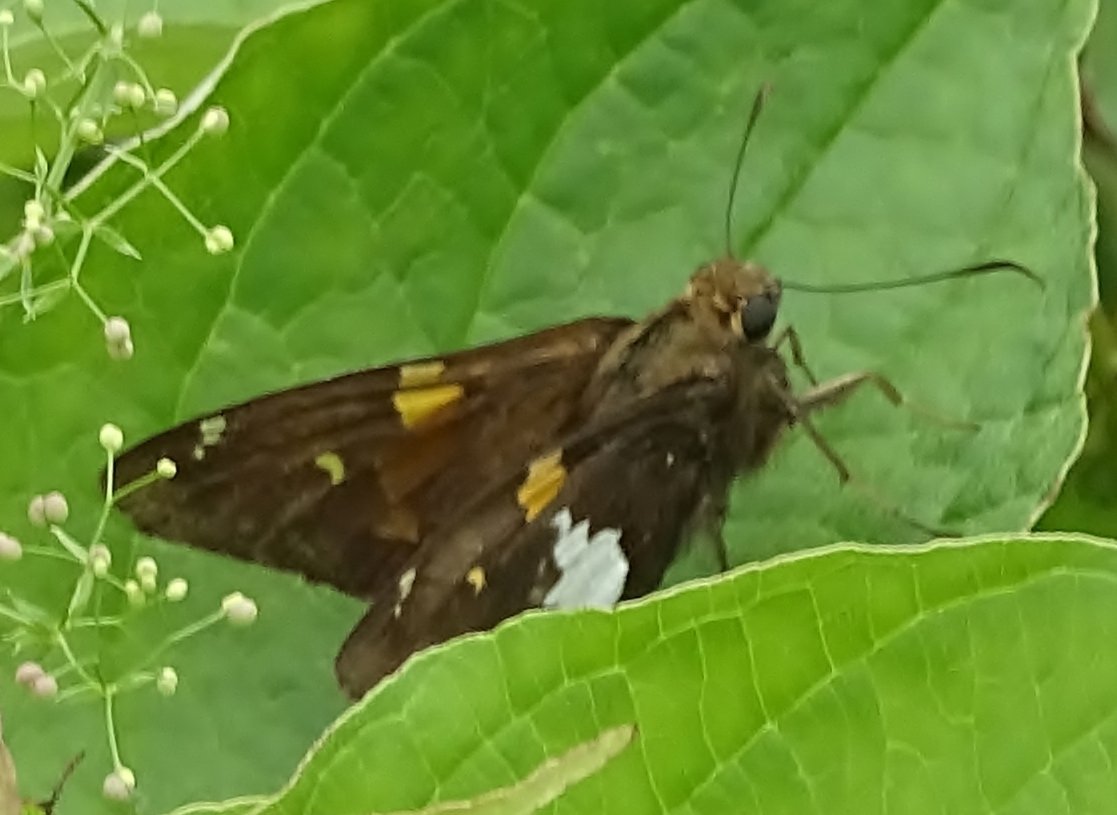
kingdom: Animalia
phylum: Arthropoda
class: Insecta
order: Lepidoptera
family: Hesperiidae
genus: Epargyreus
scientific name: Epargyreus clarus
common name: Silver-spotted Skipper
